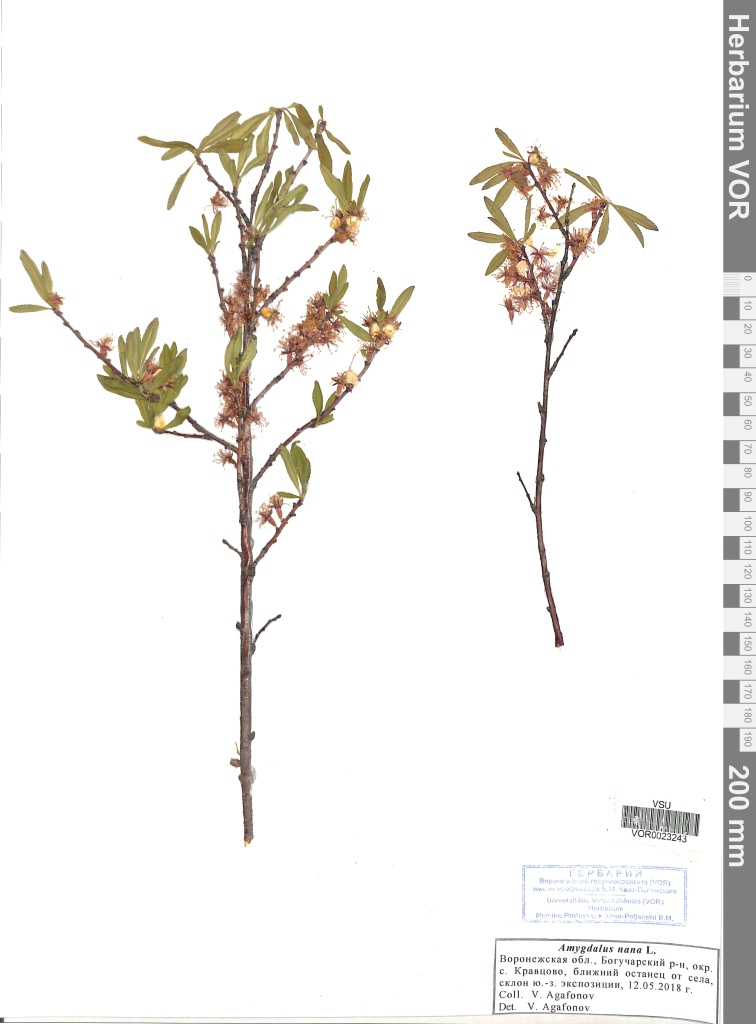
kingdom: Plantae
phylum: Tracheophyta
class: Magnoliopsida
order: Rosales
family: Rosaceae
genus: Prunus
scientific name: Prunus tenella
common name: Dwarf russian almond
